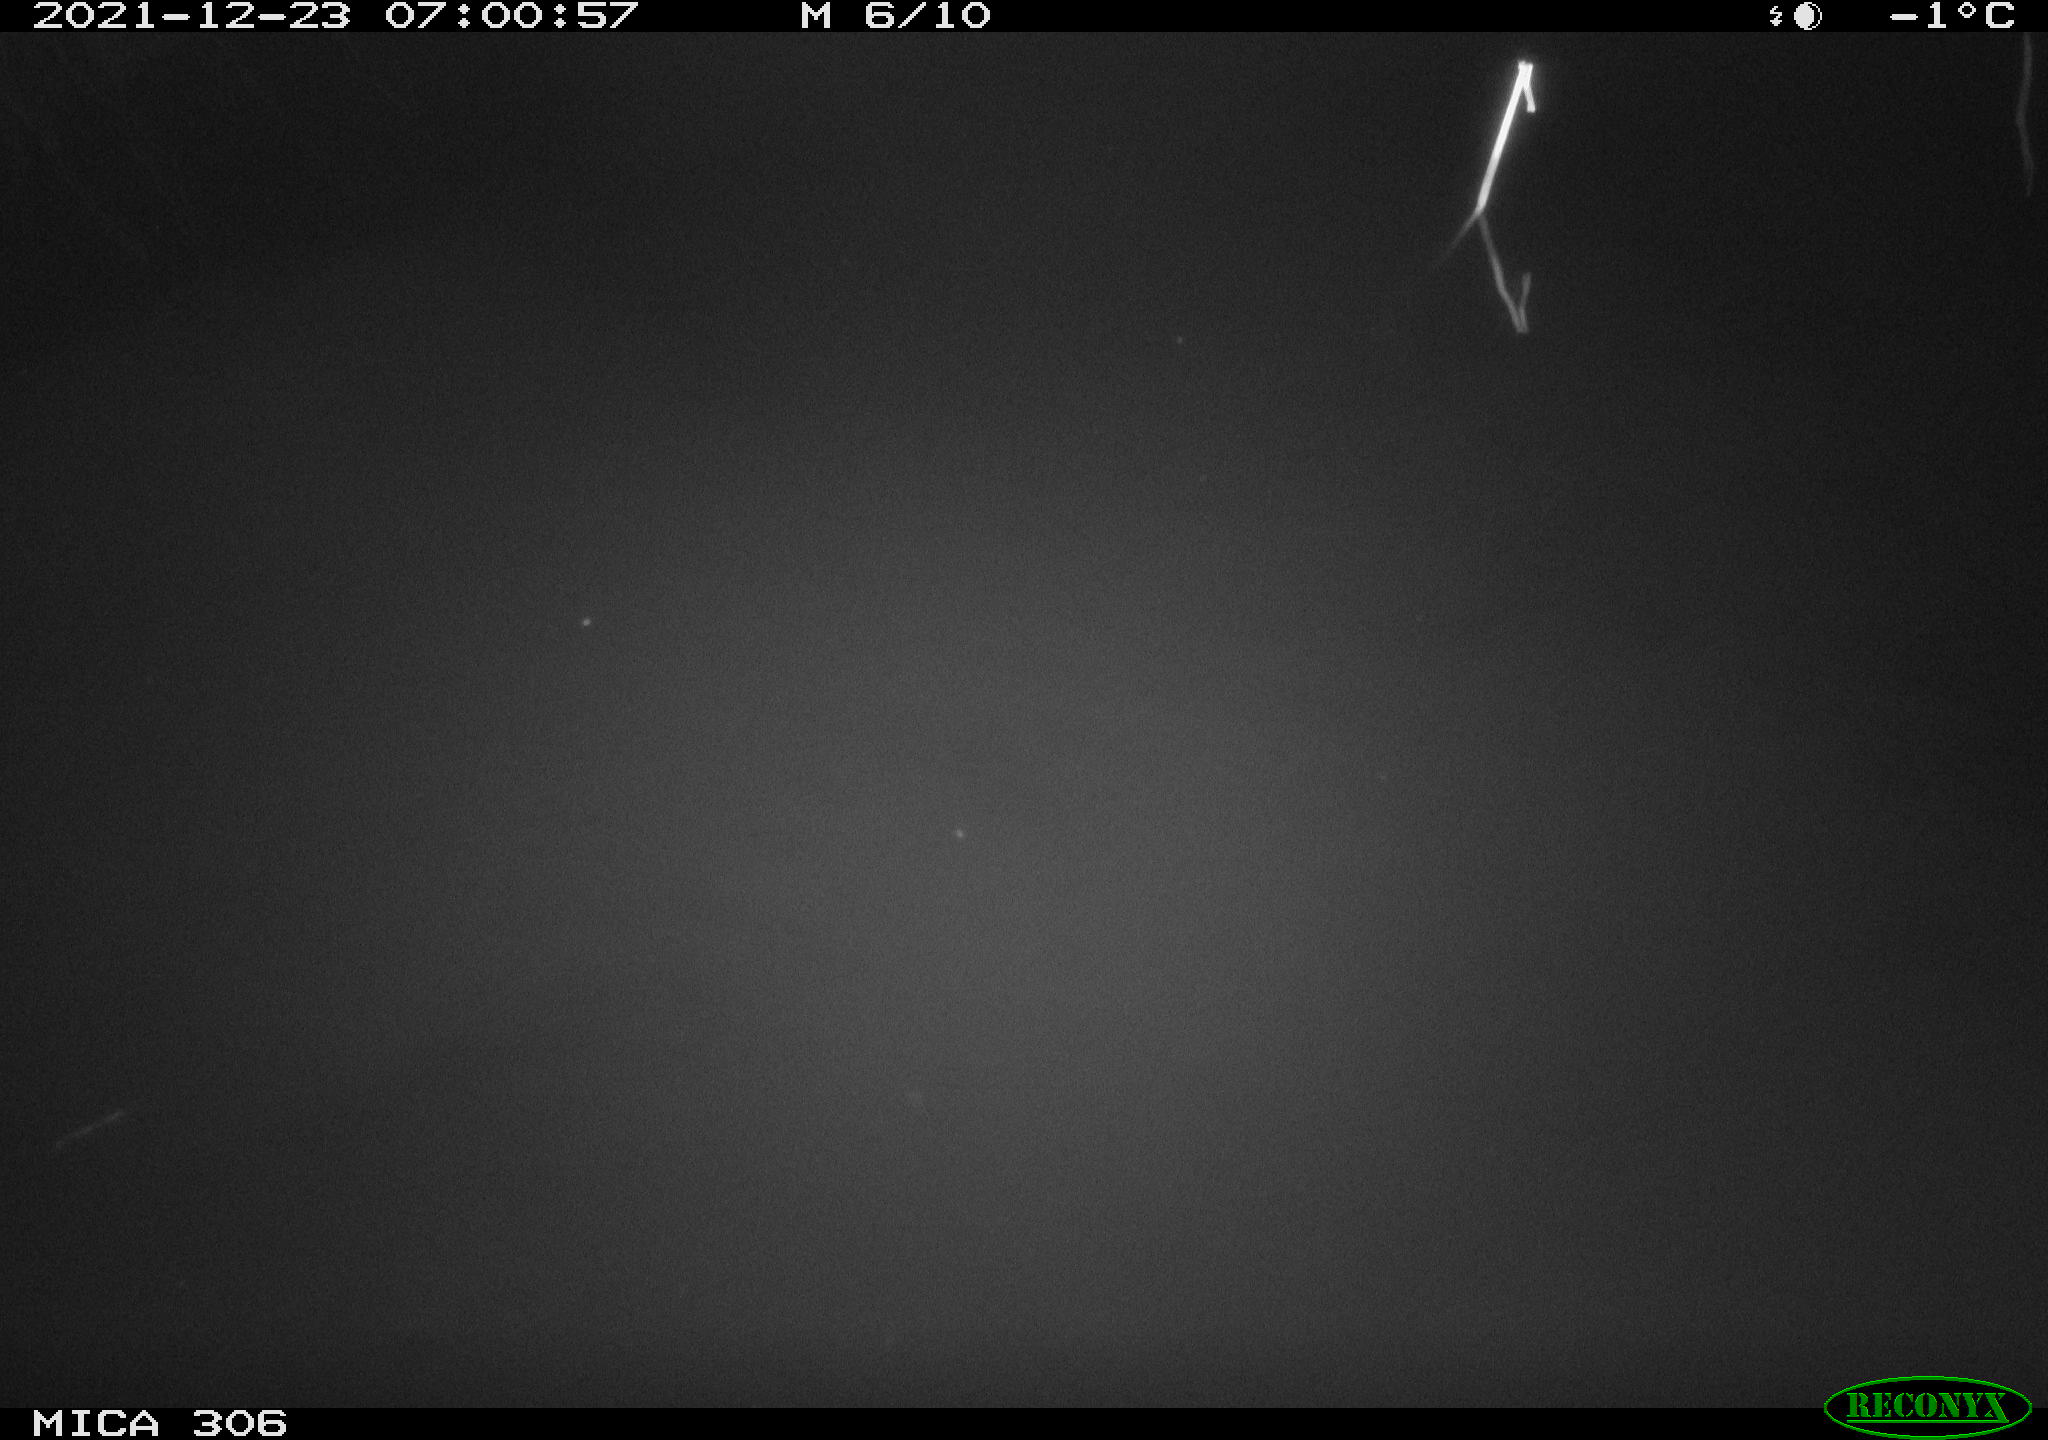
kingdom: Animalia
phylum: Chordata
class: Mammalia
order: Rodentia
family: Muridae
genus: Rattus
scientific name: Rattus norvegicus
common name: Brown rat
